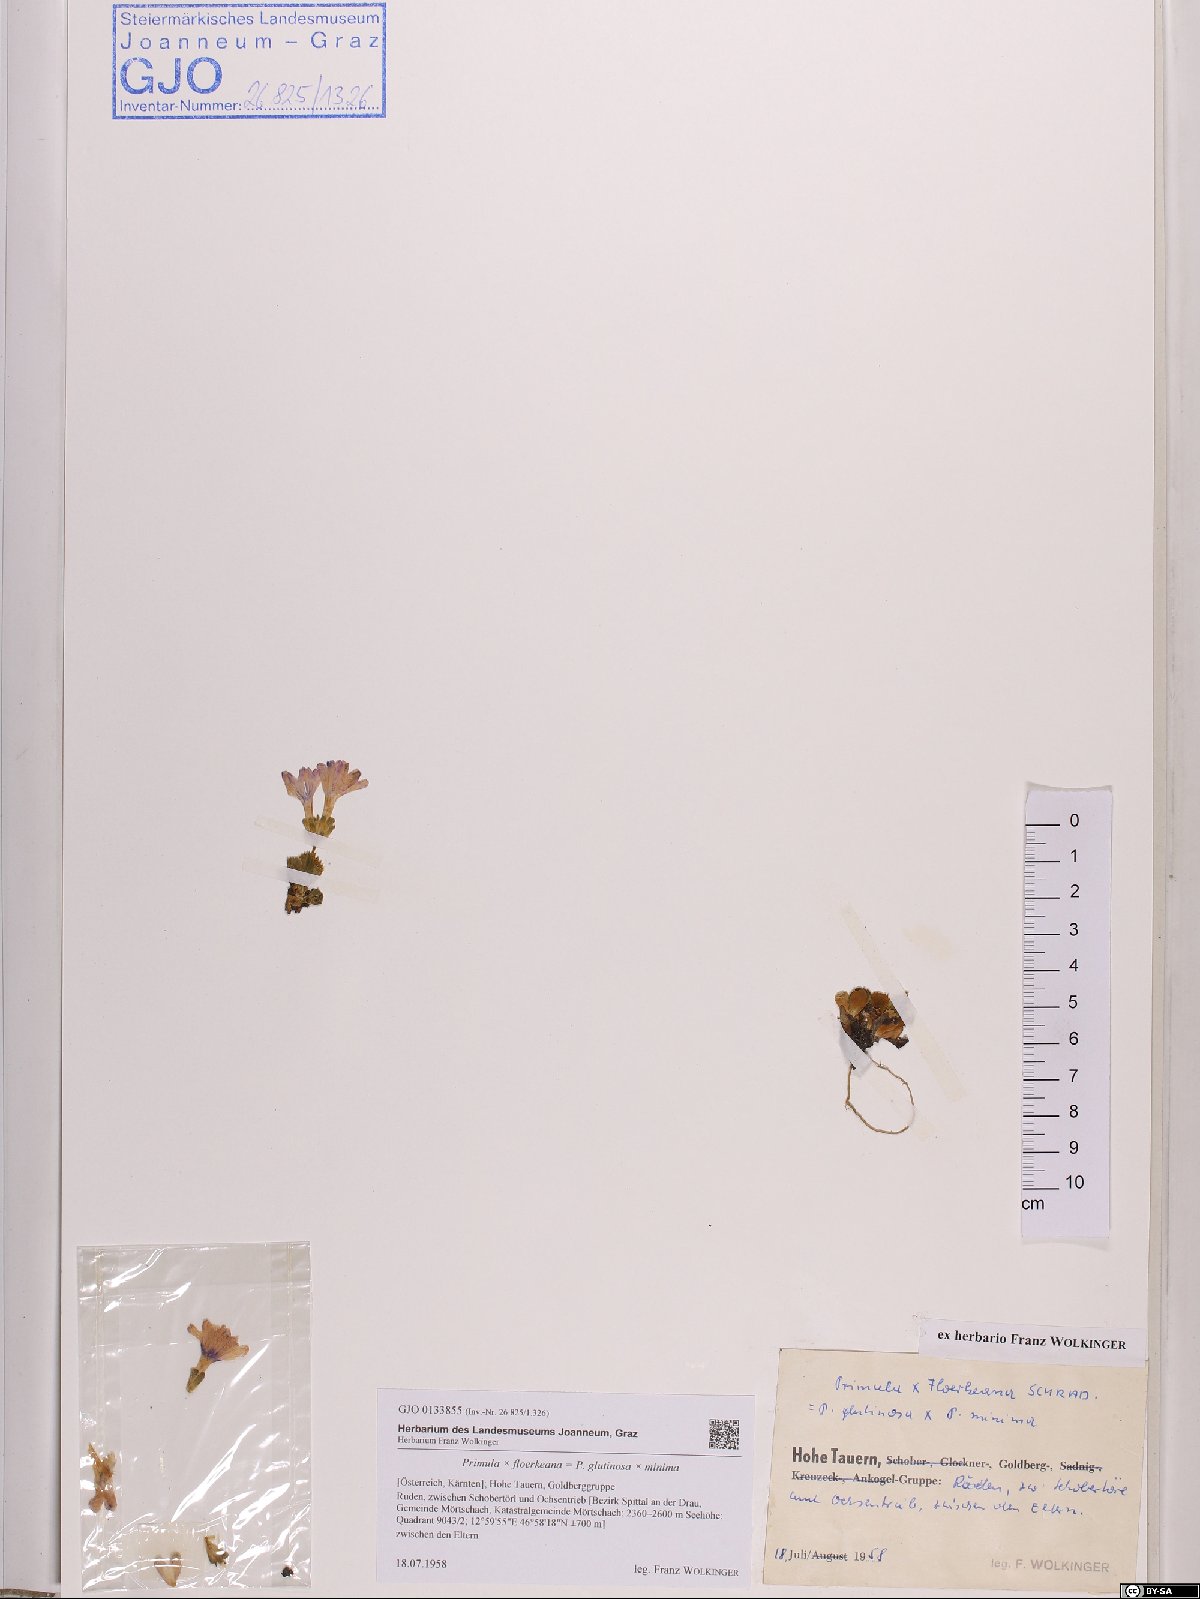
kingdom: Plantae
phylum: Tracheophyta
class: Magnoliopsida
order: Ericales
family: Primulaceae
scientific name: Primulaceae
